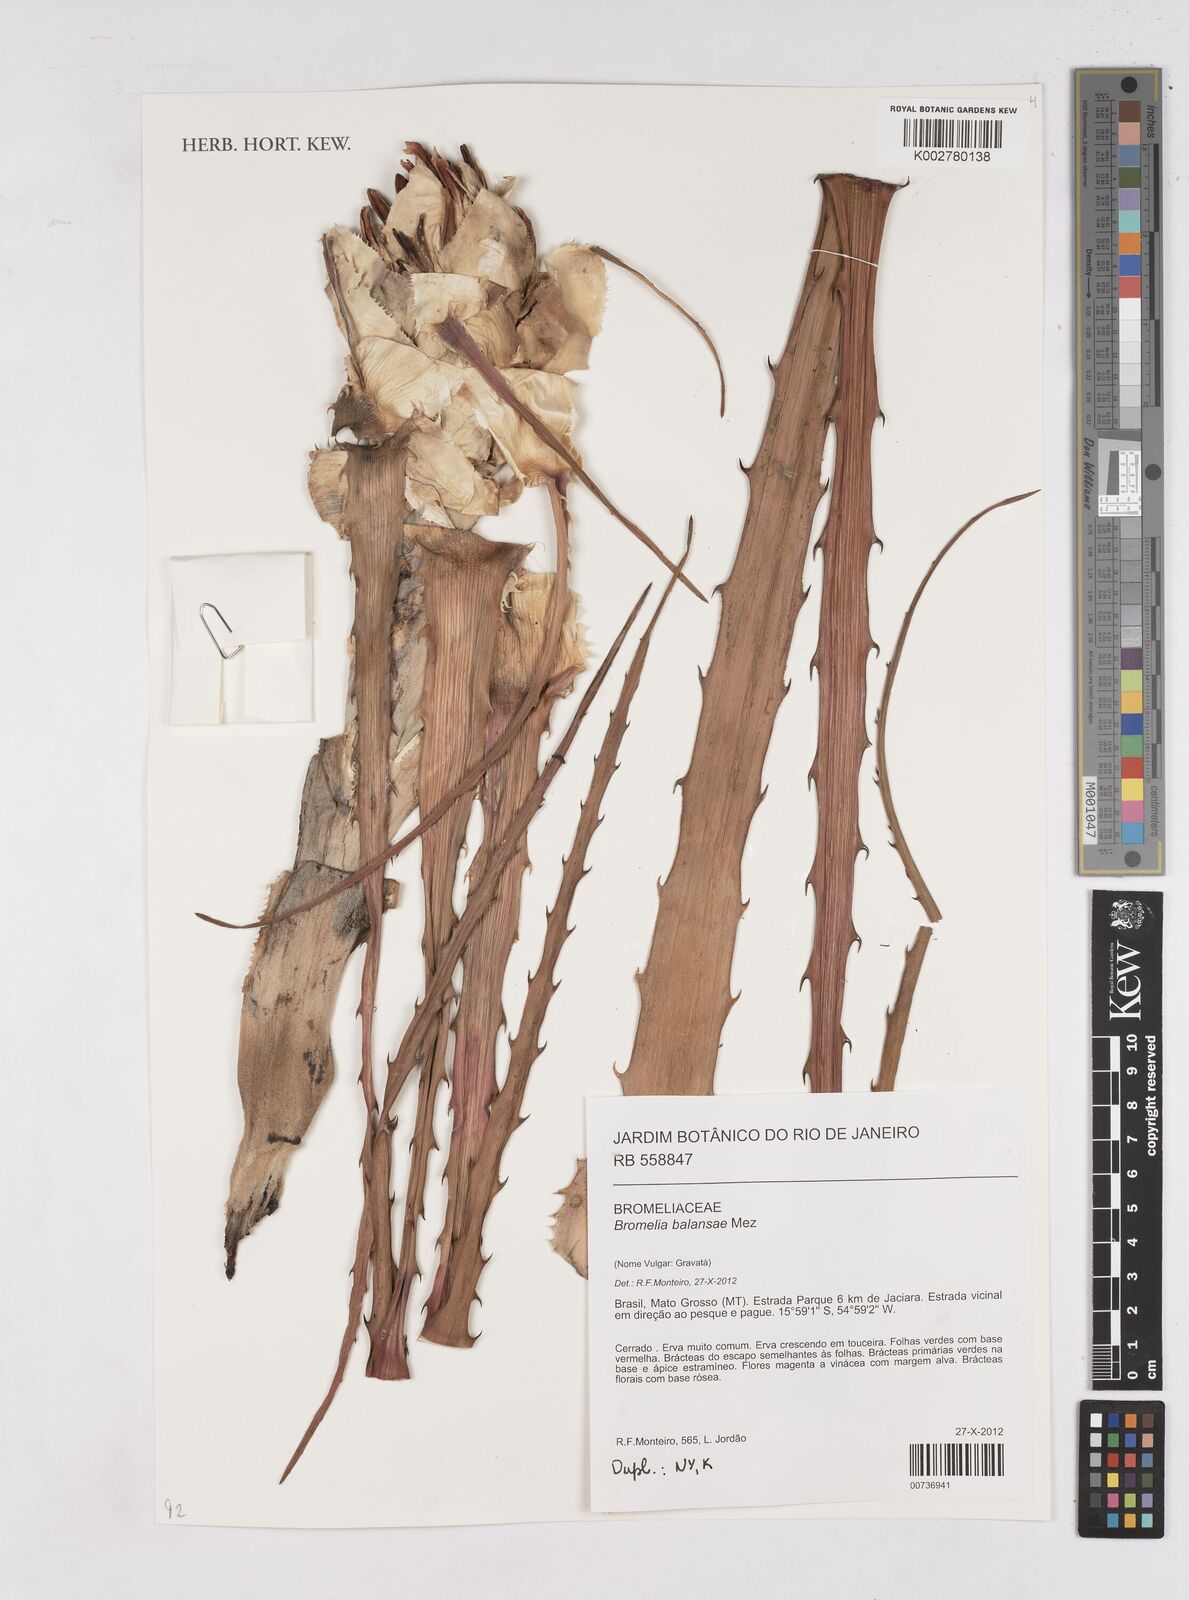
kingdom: Plantae
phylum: Tracheophyta
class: Liliopsida
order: Poales
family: Bromeliaceae
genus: Bromelia
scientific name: Bromelia balansae
